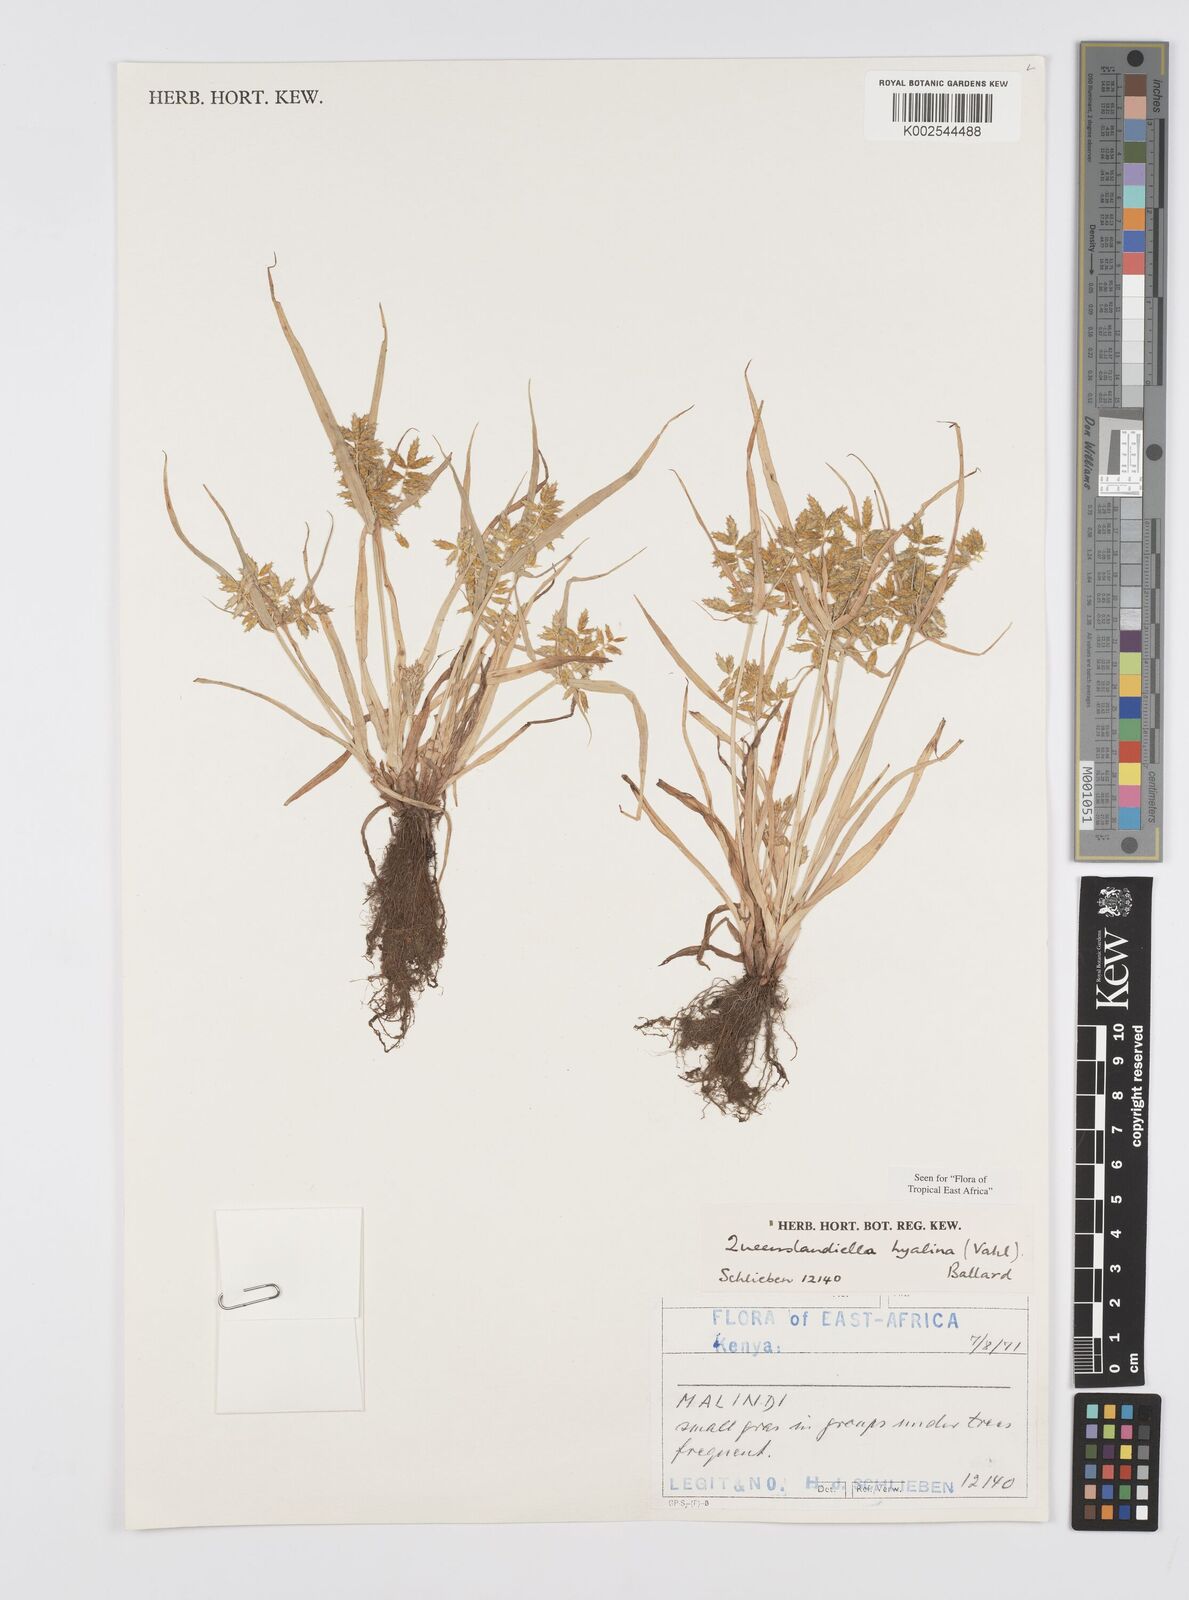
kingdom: Plantae
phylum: Tracheophyta
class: Liliopsida
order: Poales
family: Cyperaceae
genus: Cyperus
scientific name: Cyperus hyalinus
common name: Queensland sedge
